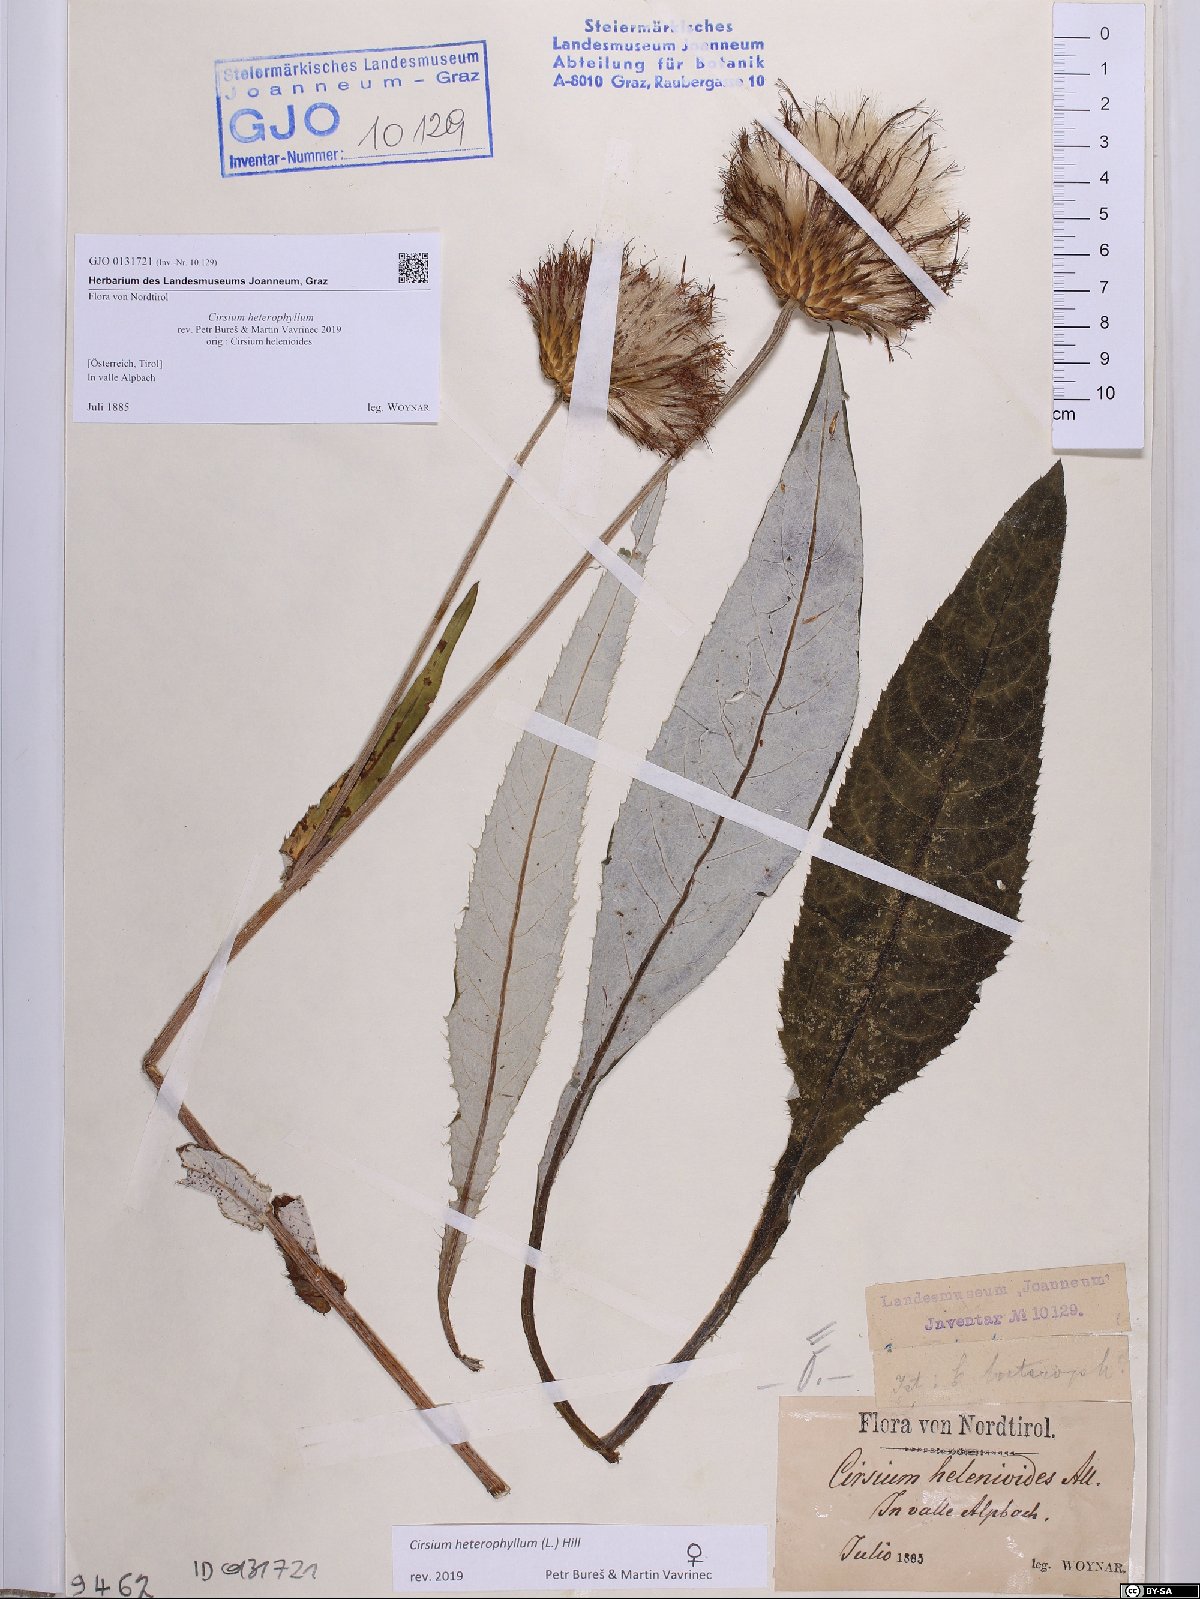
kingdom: Plantae
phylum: Tracheophyta
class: Magnoliopsida
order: Asterales
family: Asteraceae
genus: Cirsium
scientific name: Cirsium heterophyllum
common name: Melancholy thistle
